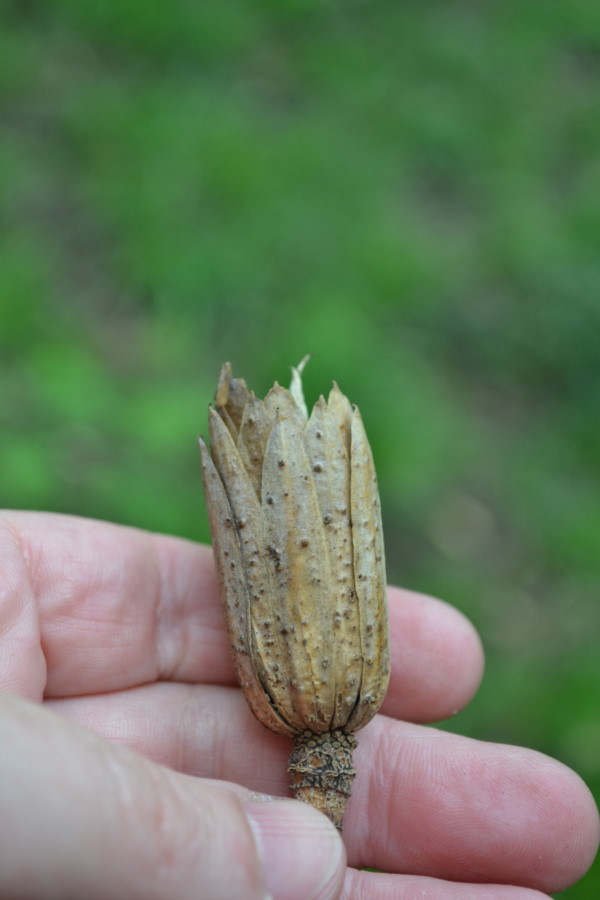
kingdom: Plantae
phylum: Tracheophyta
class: Magnoliopsida
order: Magnoliales
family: Magnoliaceae
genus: Liriodendron
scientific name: Liriodendron tulipifera
